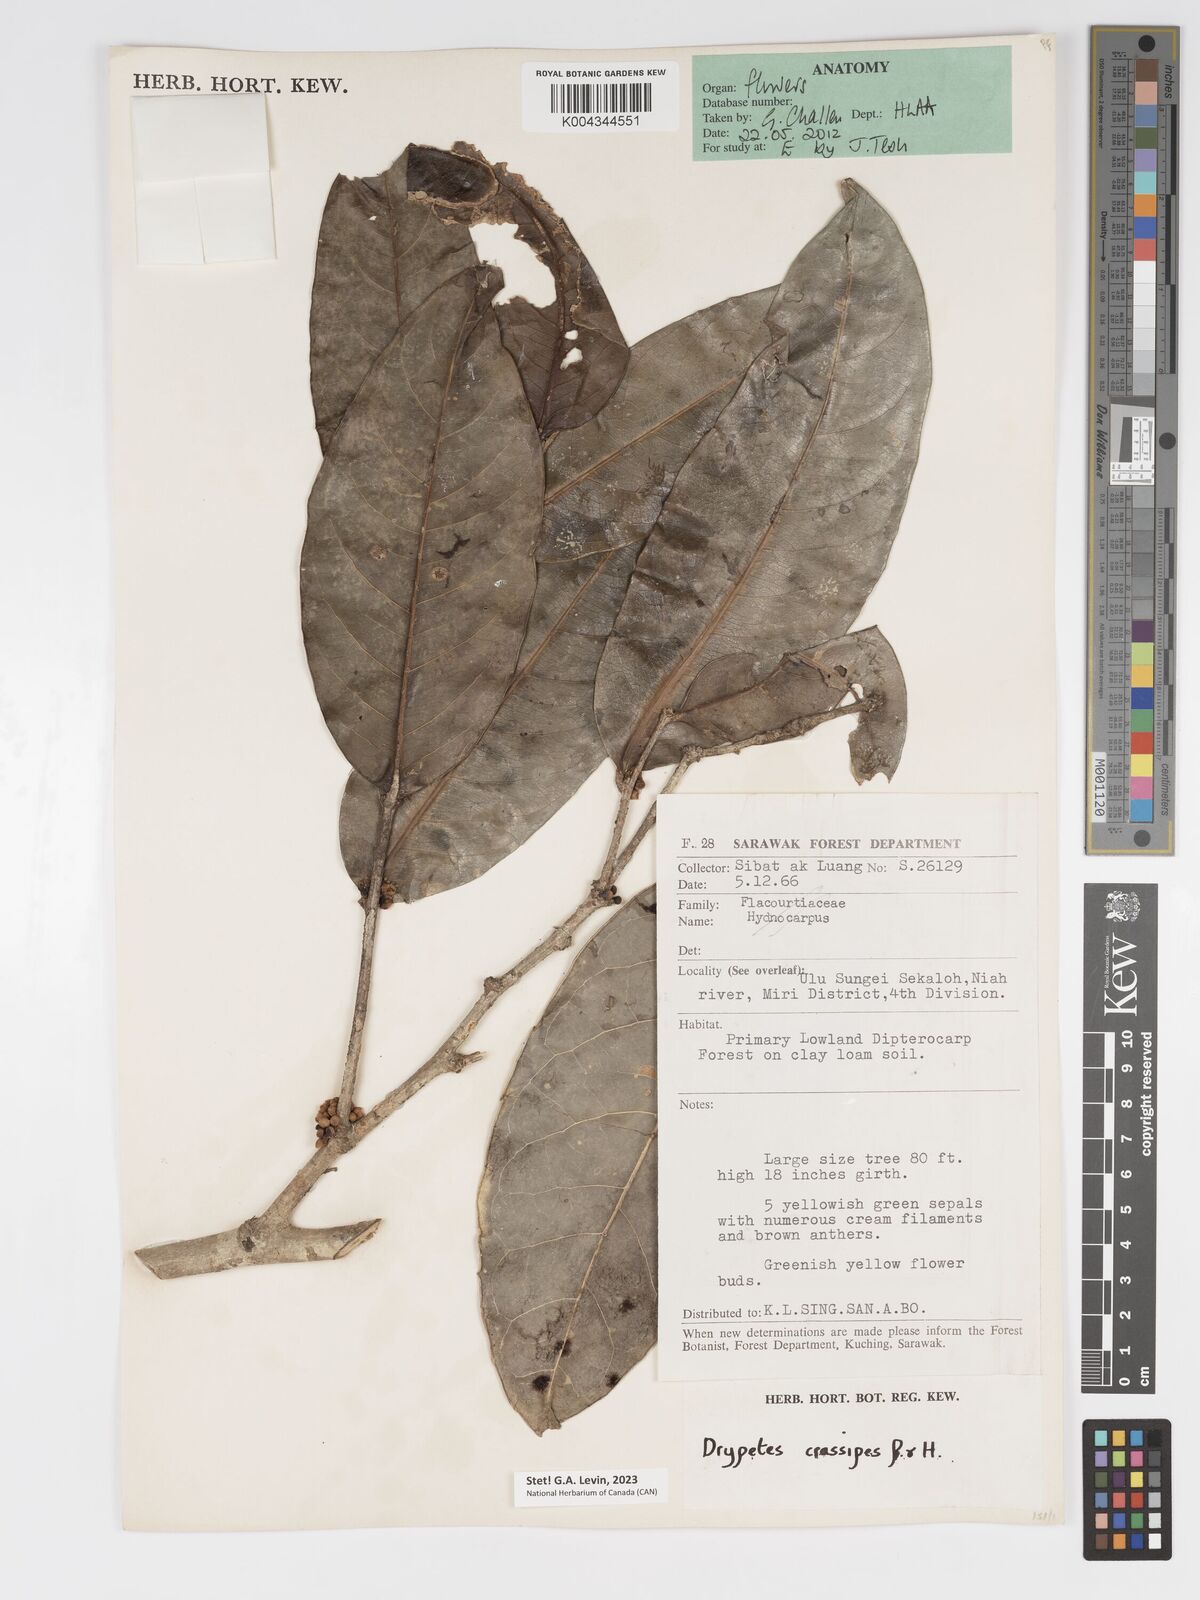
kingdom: Plantae
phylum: Tracheophyta
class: Magnoliopsida
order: Malpighiales
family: Putranjivaceae
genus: Drypetes
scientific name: Drypetes crassipes
